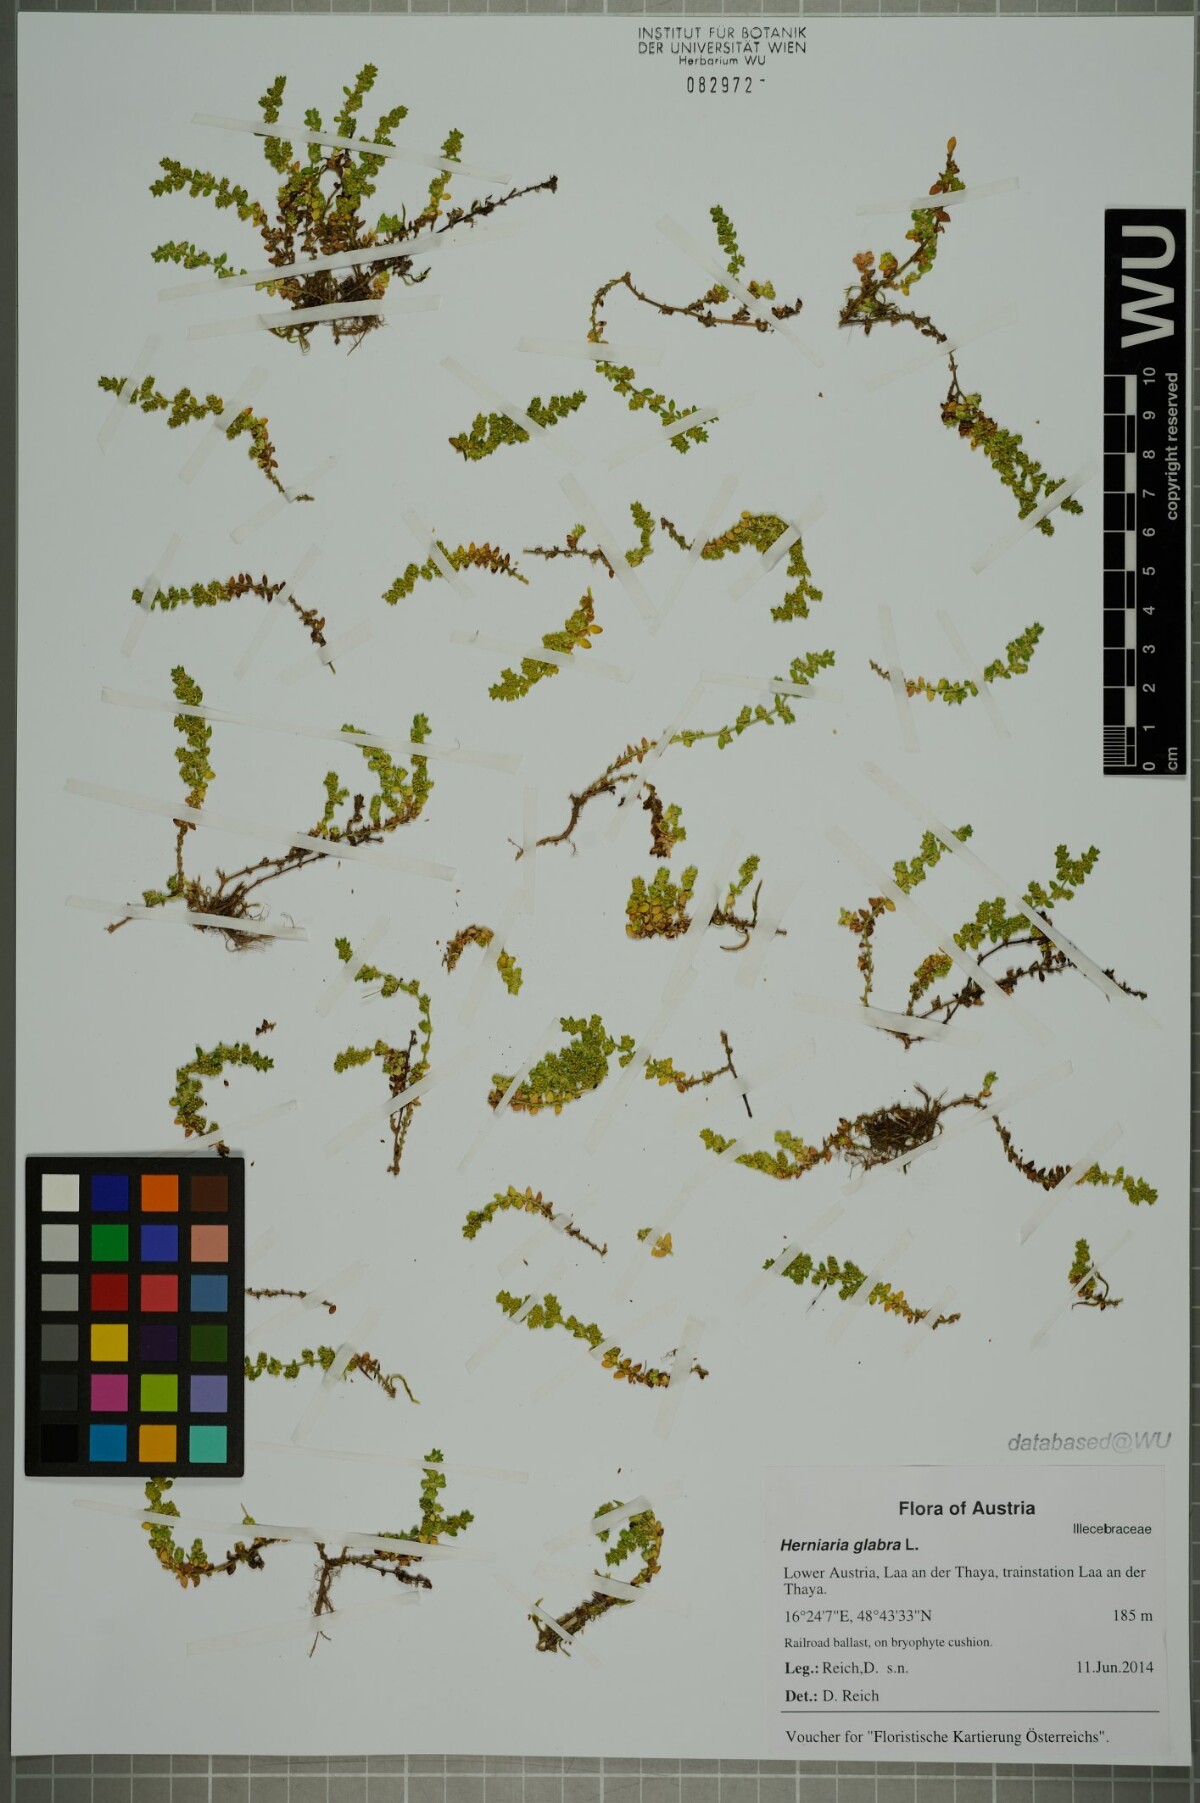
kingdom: Plantae
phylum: Tracheophyta
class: Magnoliopsida
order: Caryophyllales
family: Caryophyllaceae
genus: Herniaria
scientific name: Herniaria glabra
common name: Smooth rupturewort
